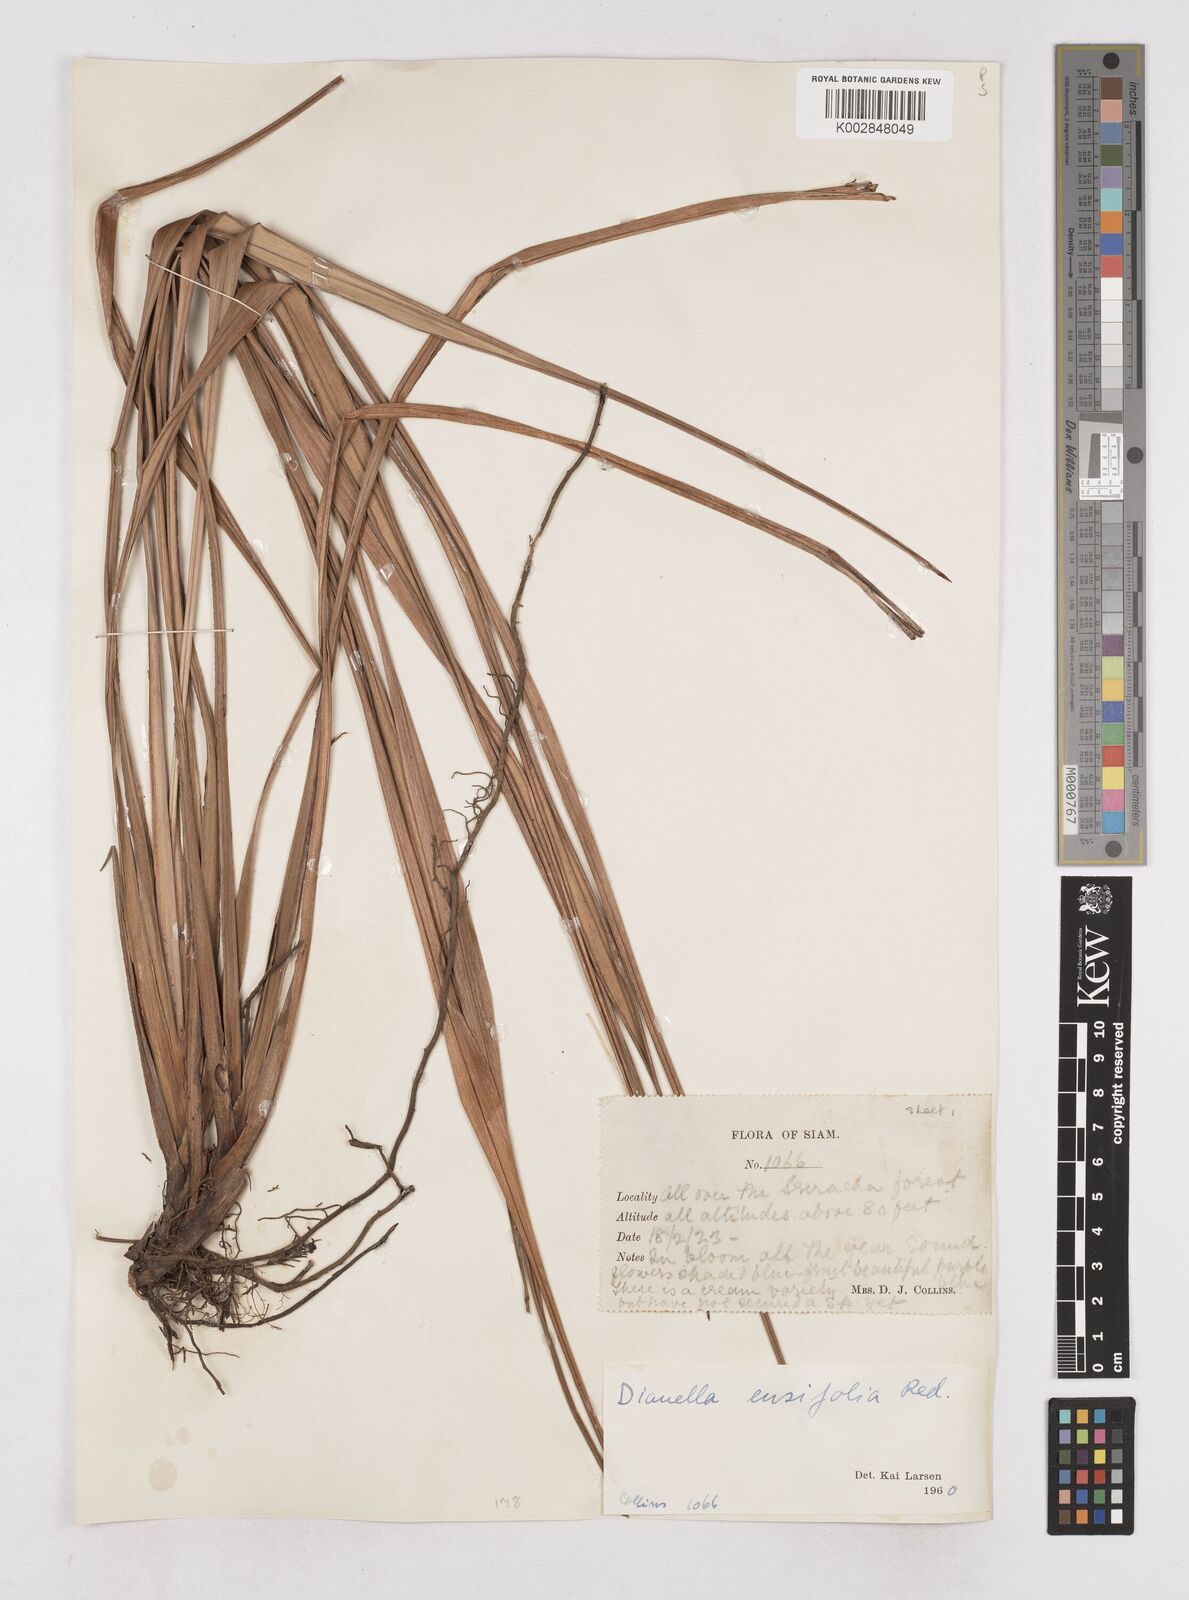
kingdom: Plantae
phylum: Tracheophyta
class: Liliopsida
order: Asparagales
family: Asphodelaceae
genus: Dianella
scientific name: Dianella ensifolia
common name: New zealand lilyplant
